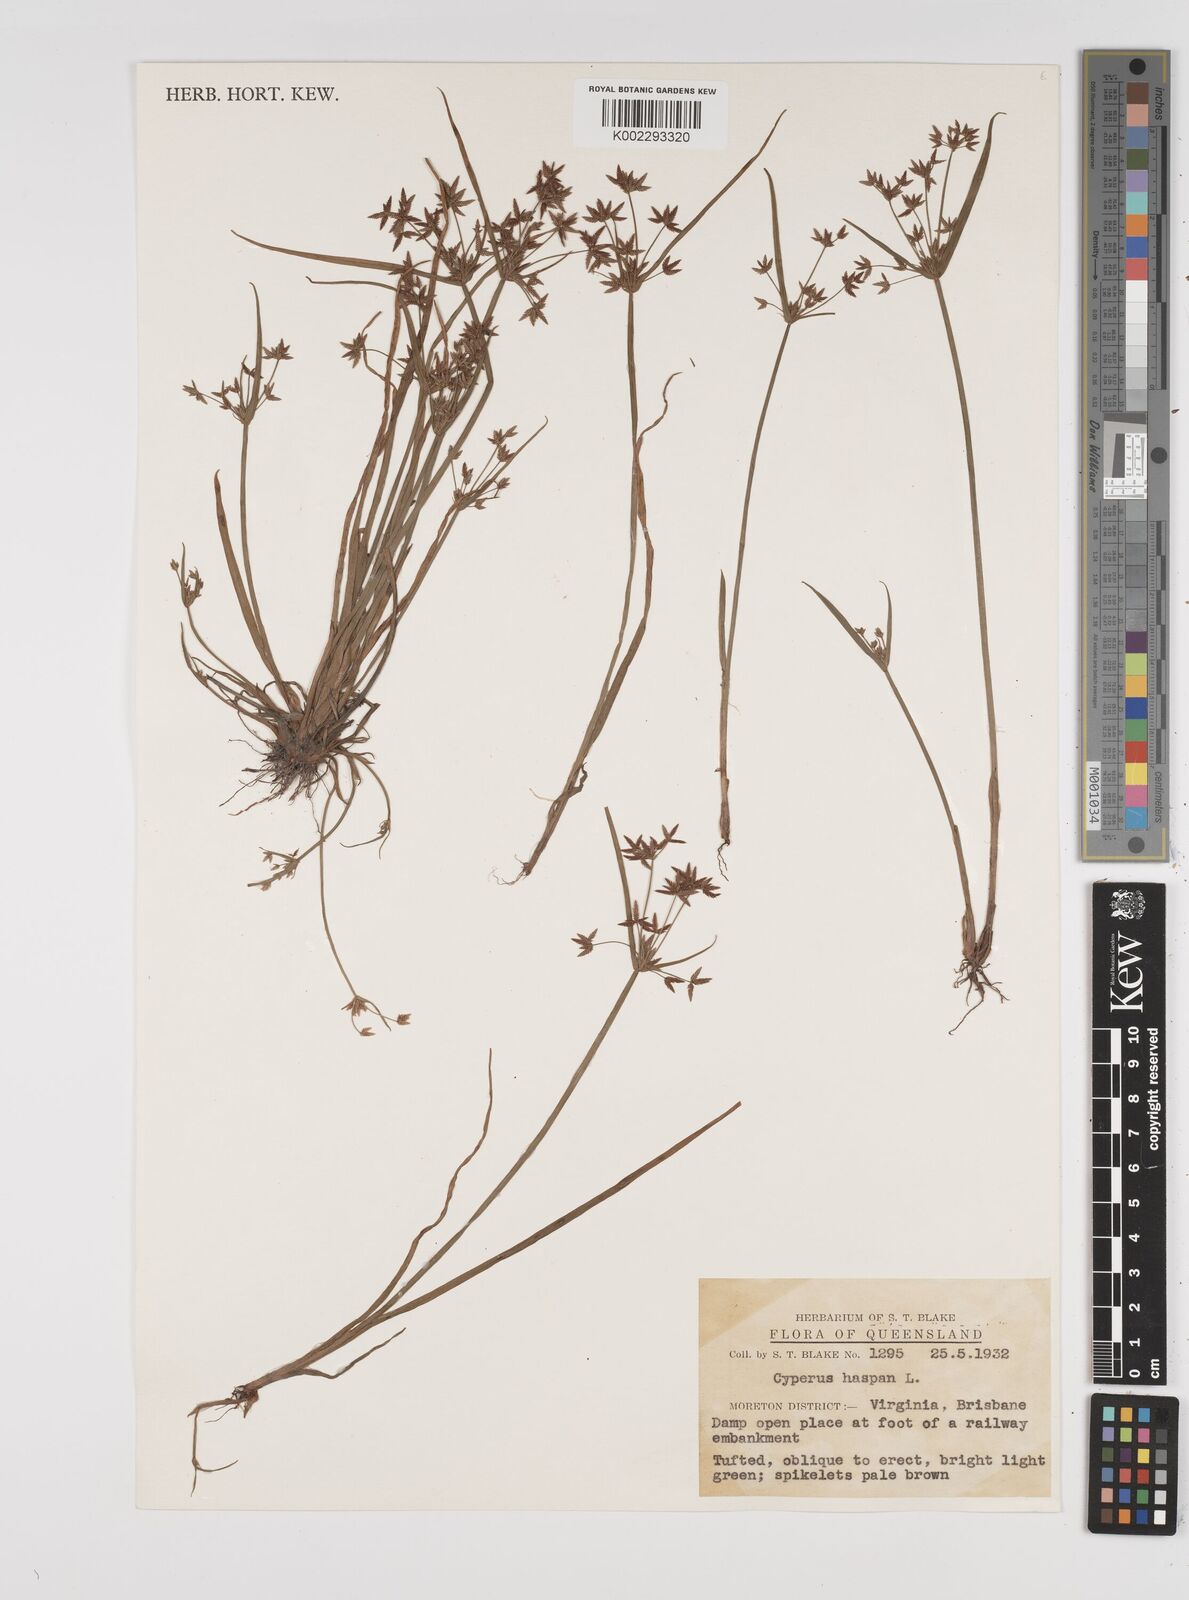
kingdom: Plantae
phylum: Tracheophyta
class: Liliopsida
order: Poales
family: Cyperaceae
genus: Cyperus
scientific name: Cyperus haspan
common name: Haspan flatsedge
